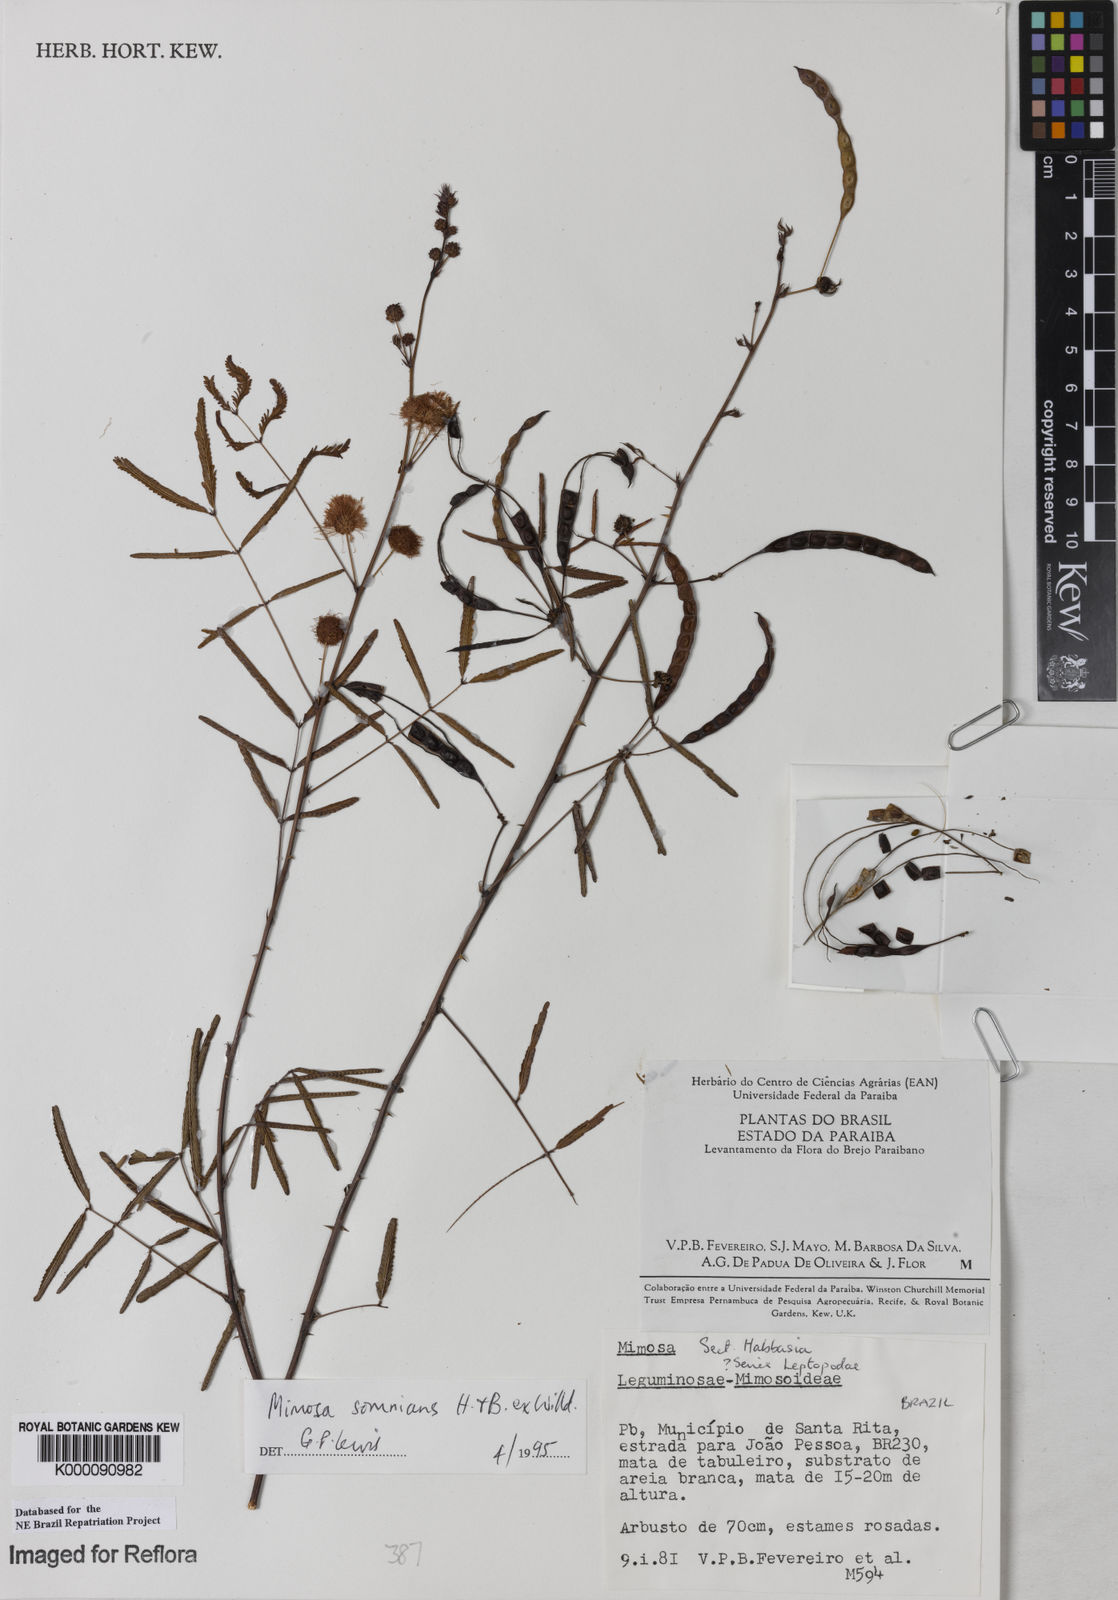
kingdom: Plantae
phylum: Tracheophyta
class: Magnoliopsida
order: Fabales
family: Fabaceae
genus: Mimosa
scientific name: Mimosa somnians
